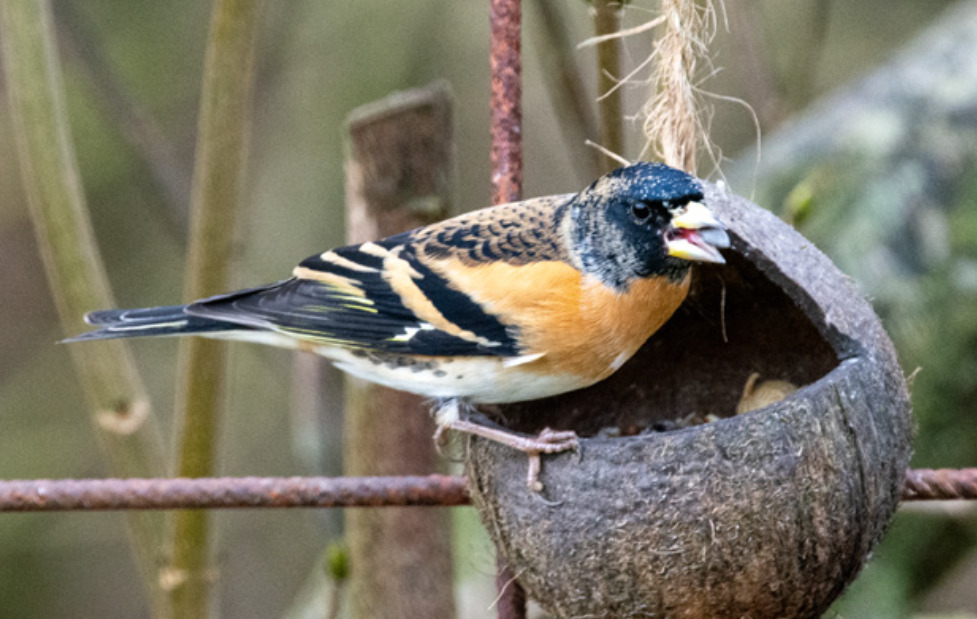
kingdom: Animalia
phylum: Chordata
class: Aves
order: Passeriformes
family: Fringillidae
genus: Fringilla
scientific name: Fringilla montifringilla
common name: Kvækerfinke
